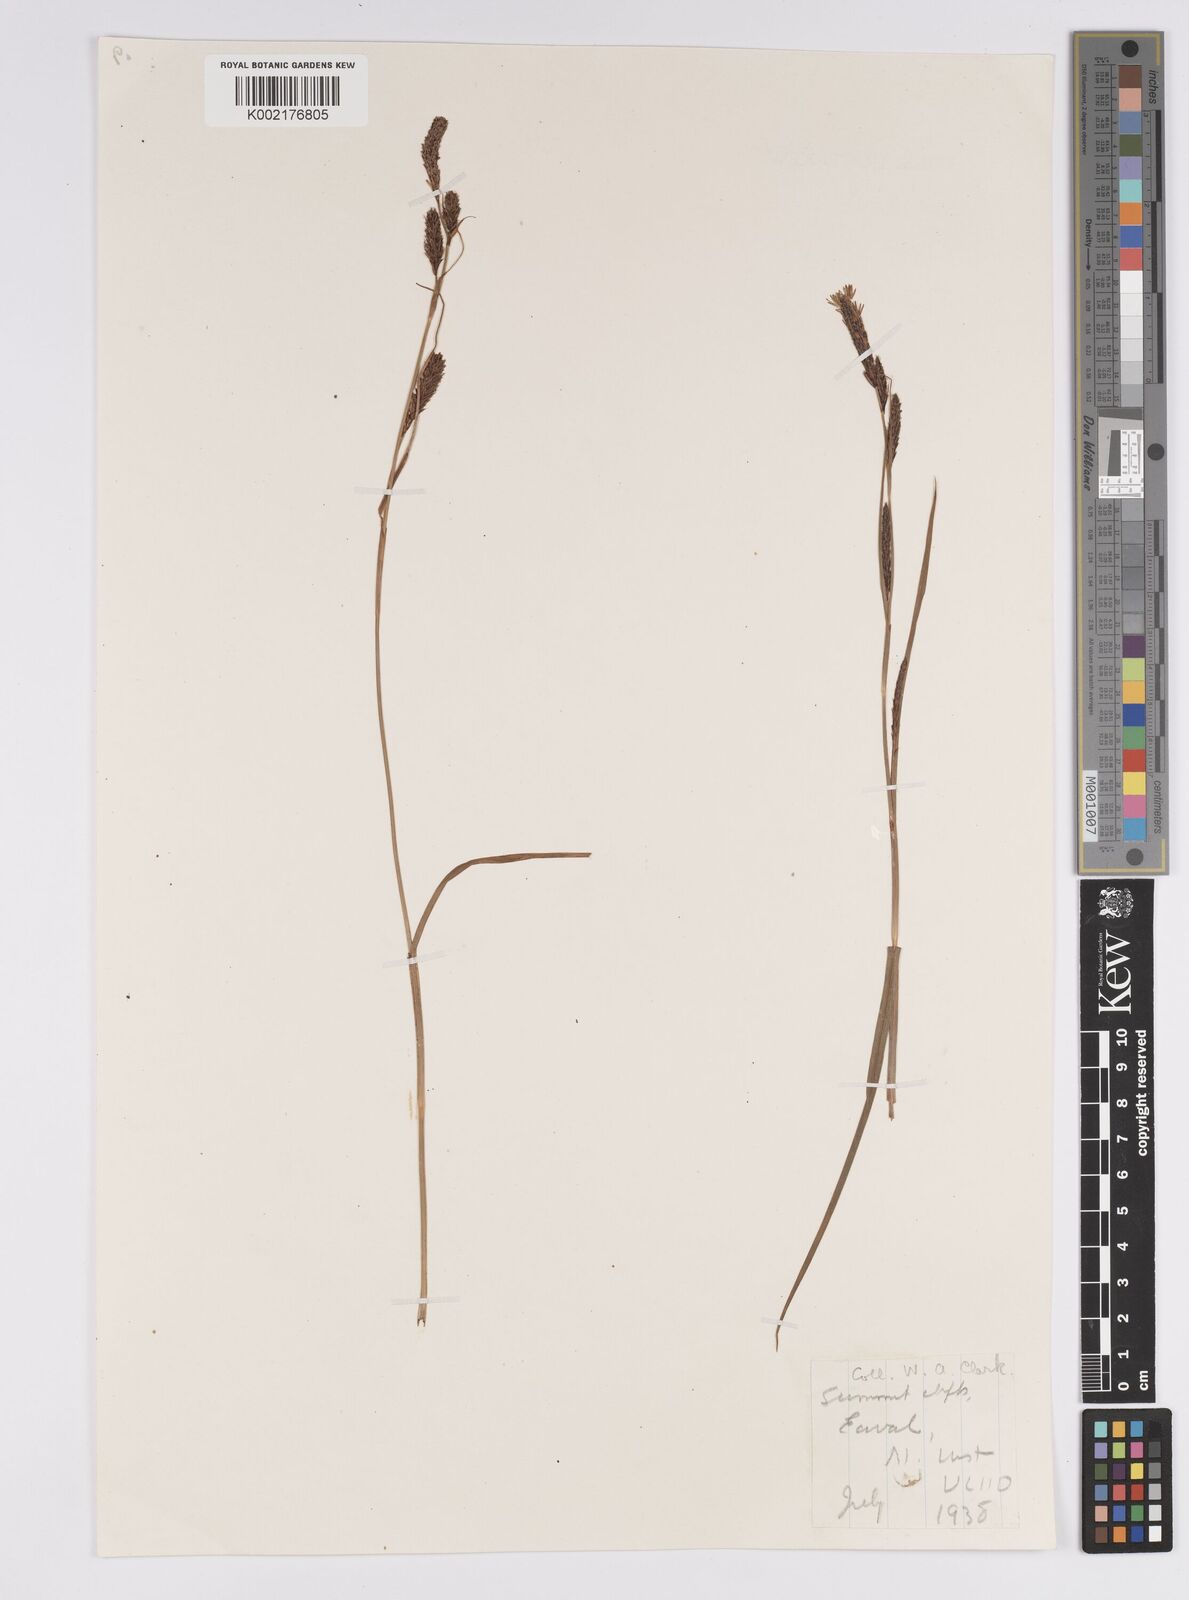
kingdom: Plantae
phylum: Tracheophyta
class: Liliopsida
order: Poales
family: Cyperaceae
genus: Carex
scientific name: Carex binervis
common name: Green-ribbed sedge
